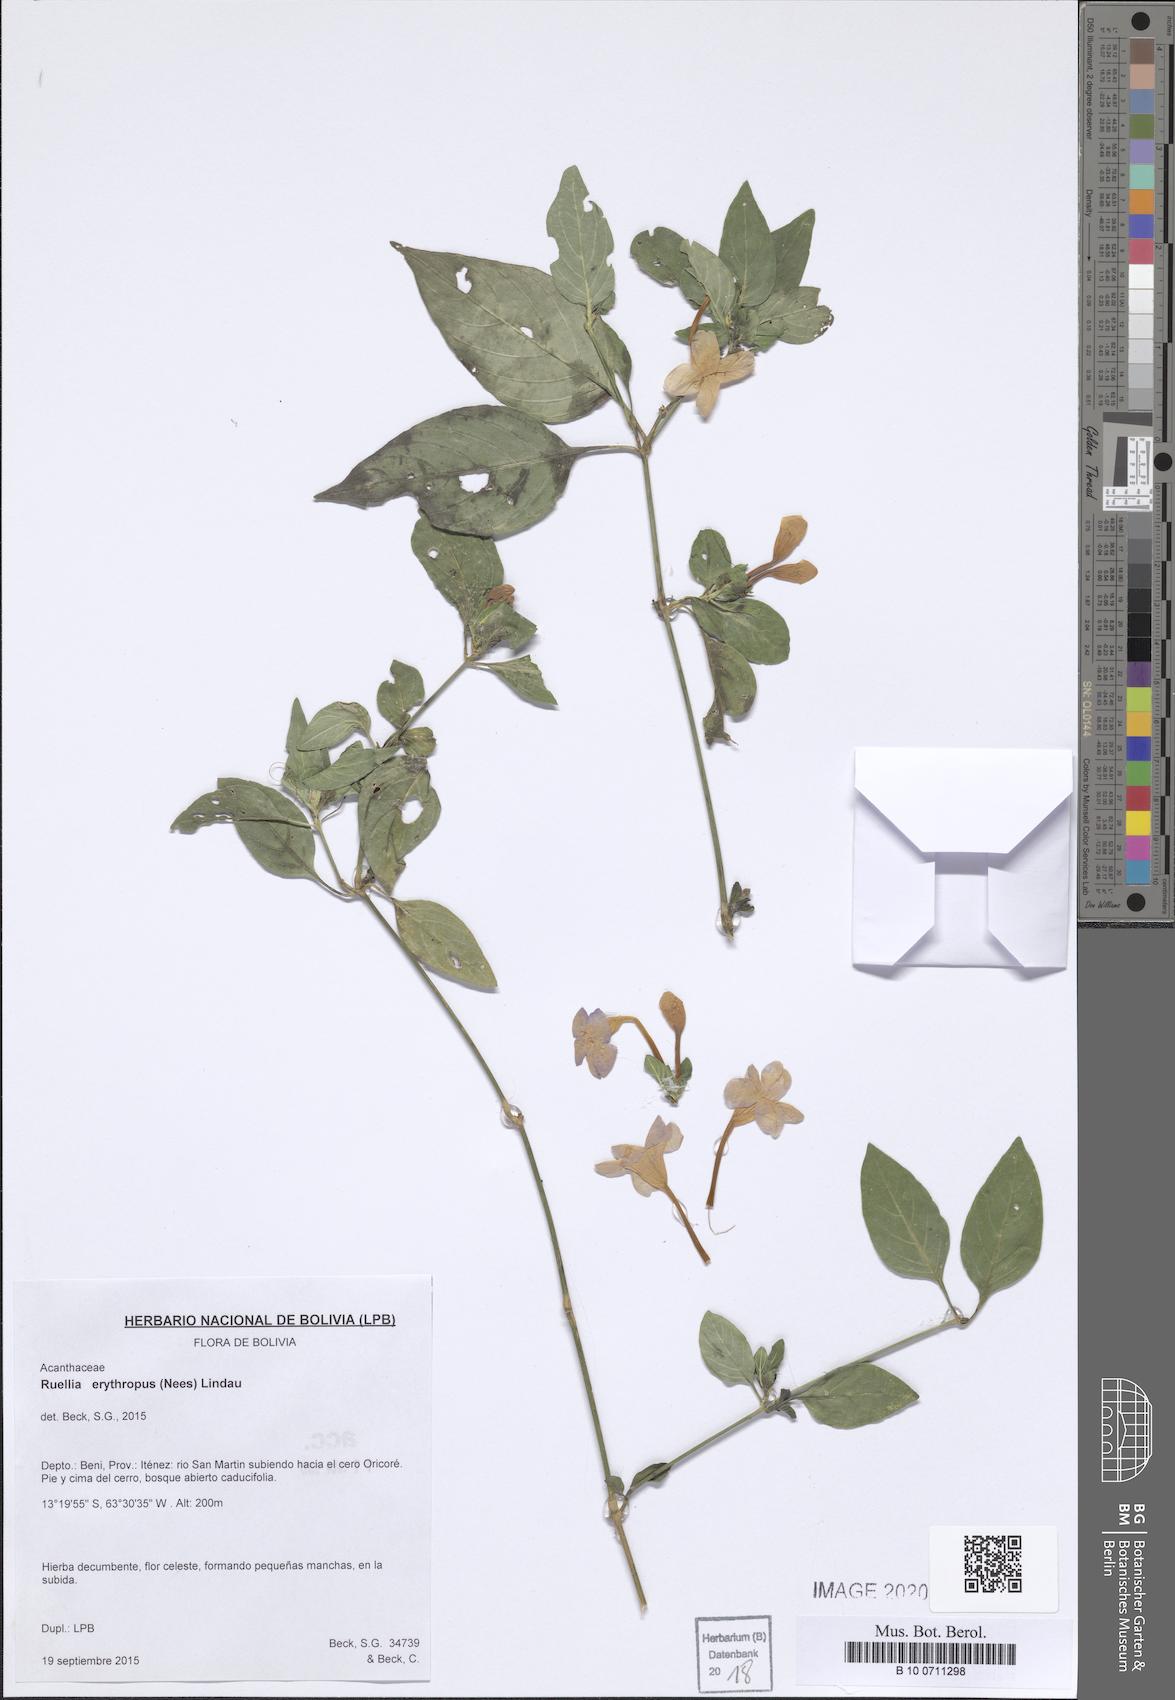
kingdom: Plantae
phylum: Tracheophyta
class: Magnoliopsida
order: Lamiales
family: Acanthaceae
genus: Ruellia
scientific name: Ruellia erythropus
